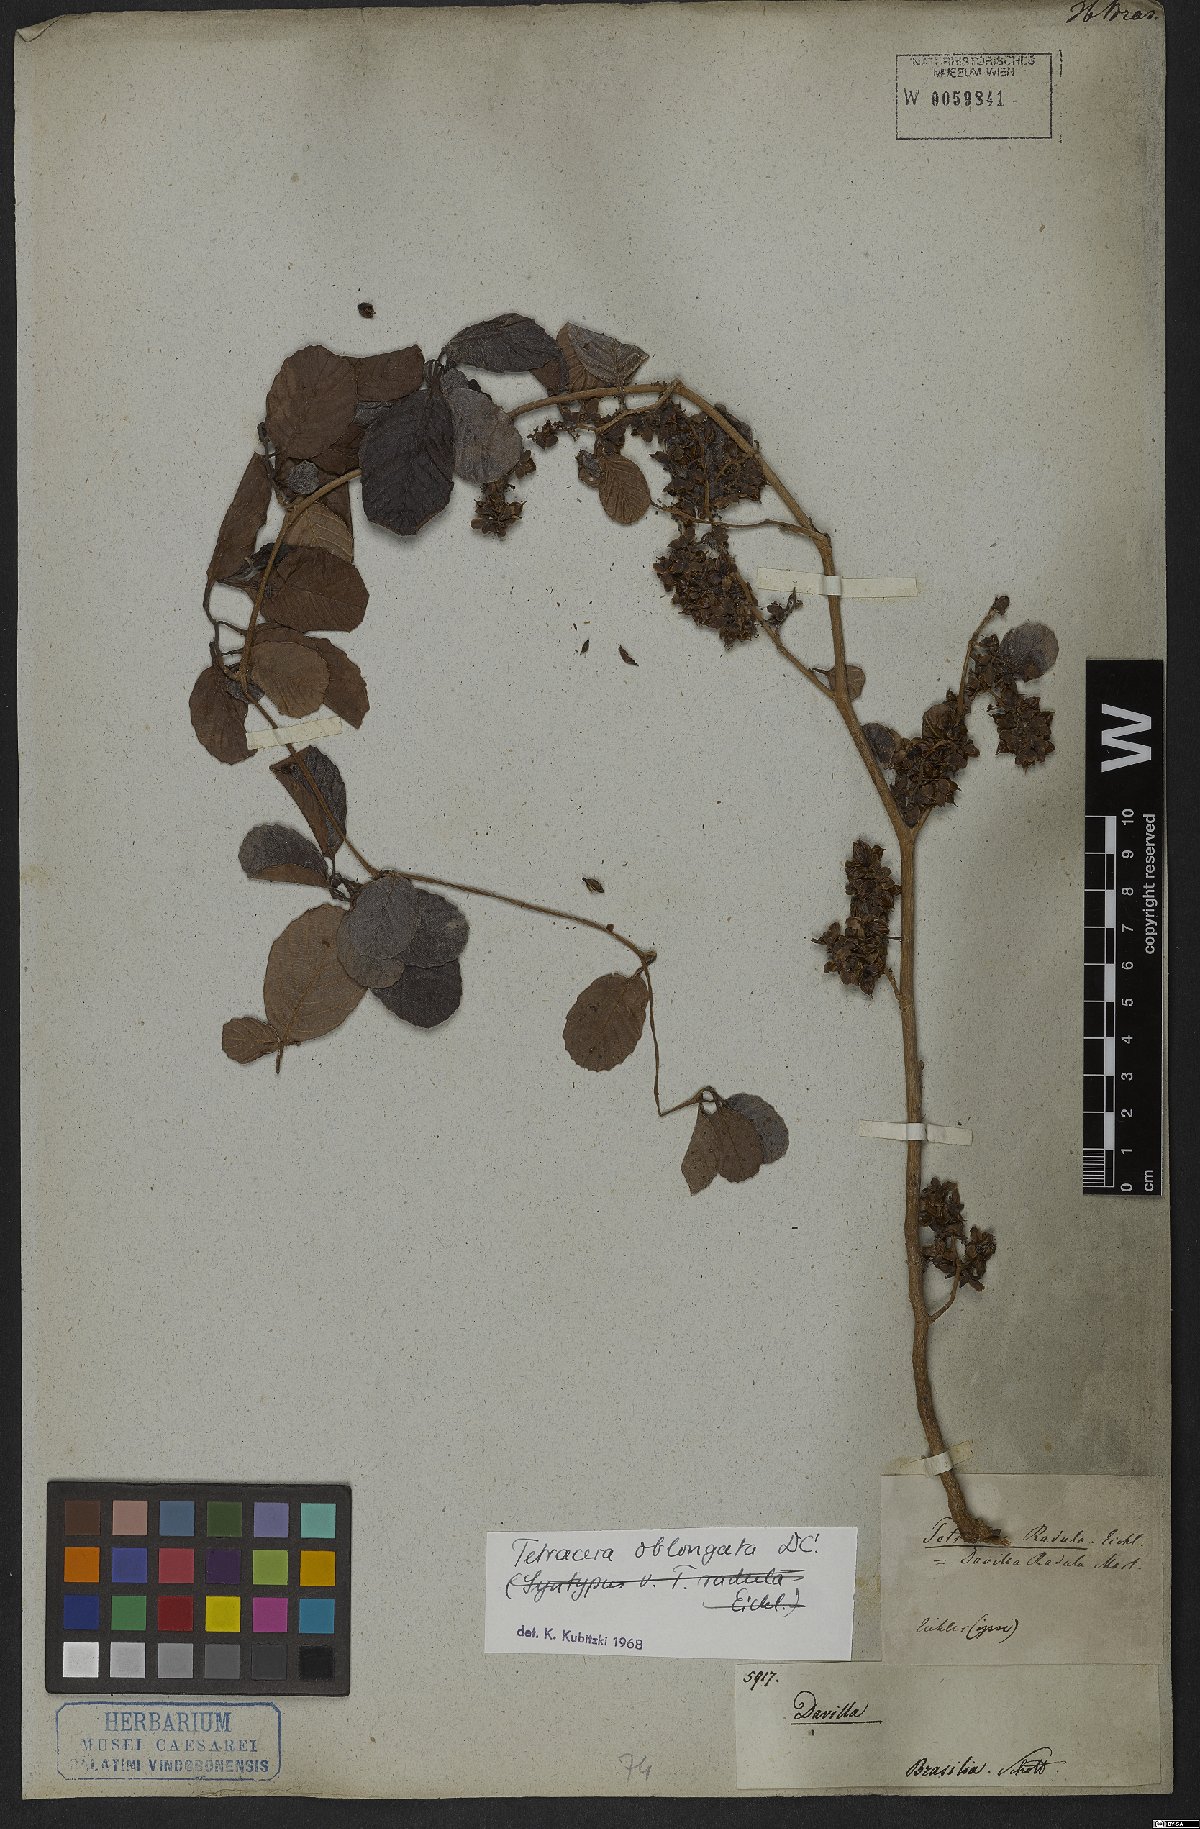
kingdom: Plantae
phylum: Tracheophyta
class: Magnoliopsida
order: Dilleniales
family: Dilleniaceae
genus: Tetracera
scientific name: Tetracera oblongata
